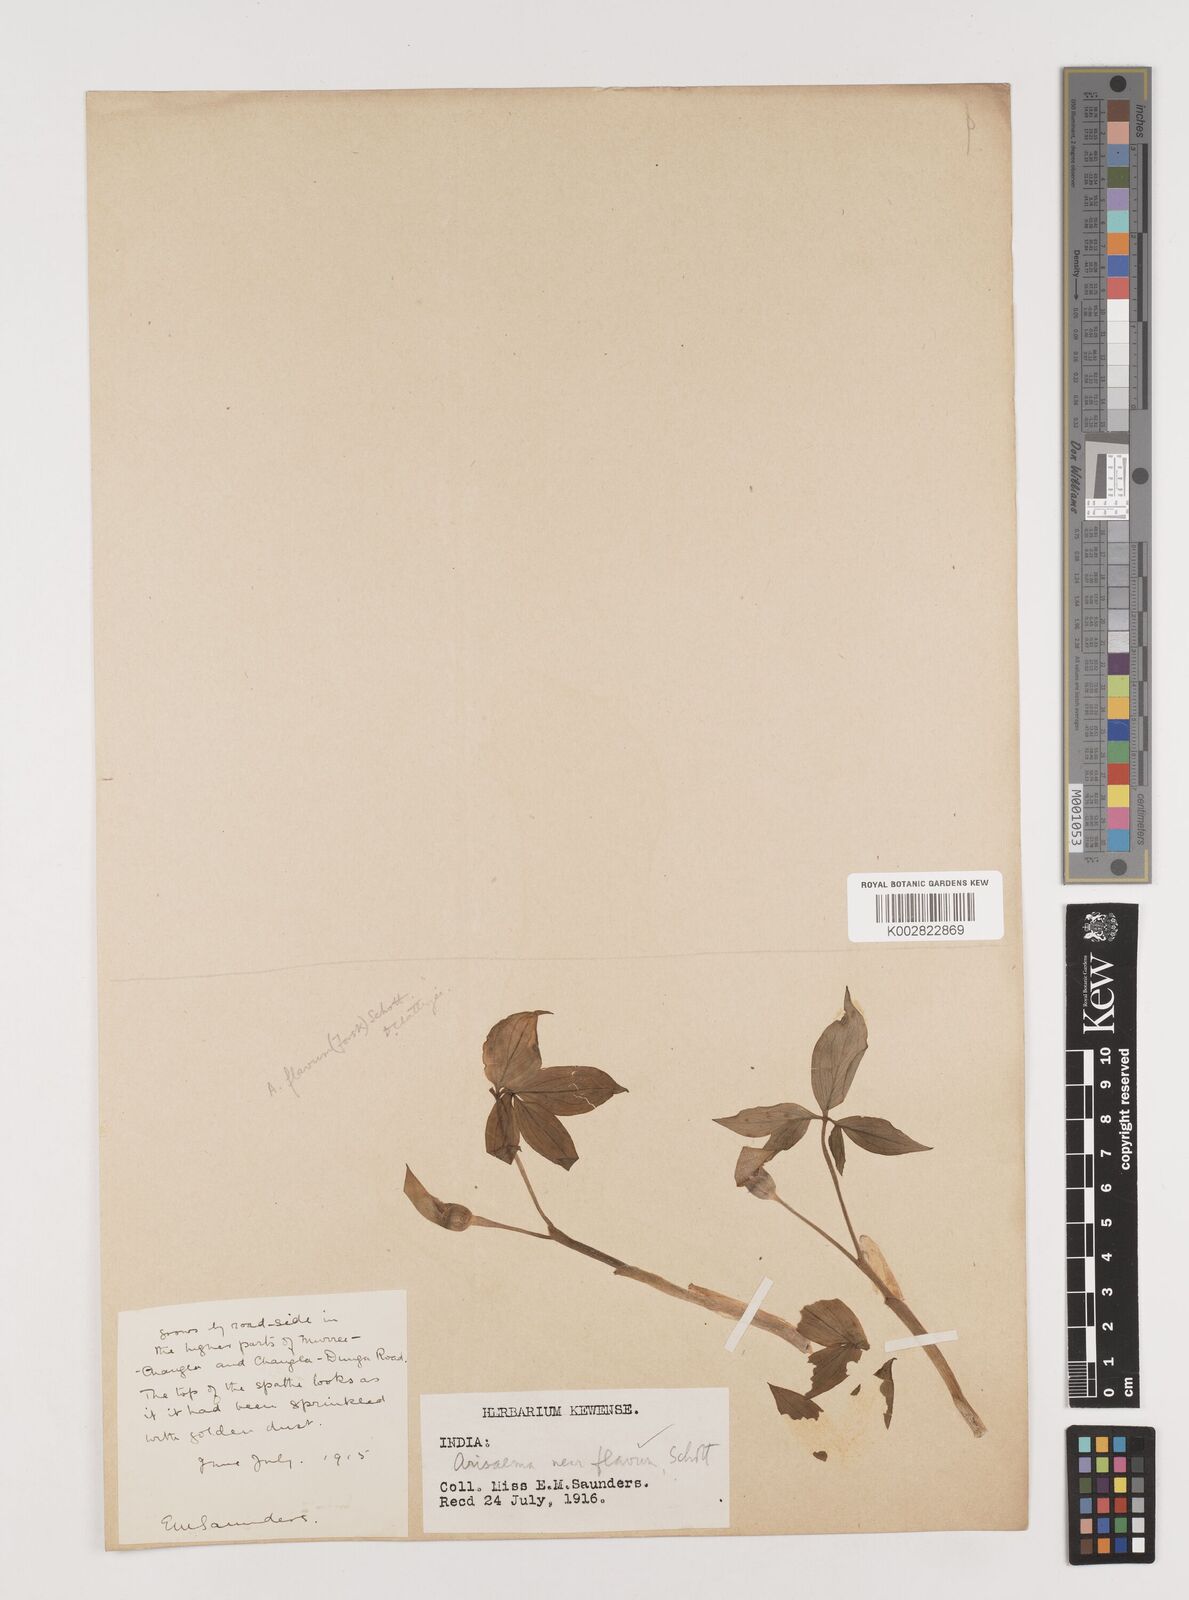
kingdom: Plantae
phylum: Tracheophyta
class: Liliopsida
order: Alismatales
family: Araceae
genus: Arisaema
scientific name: Arisaema flavum
